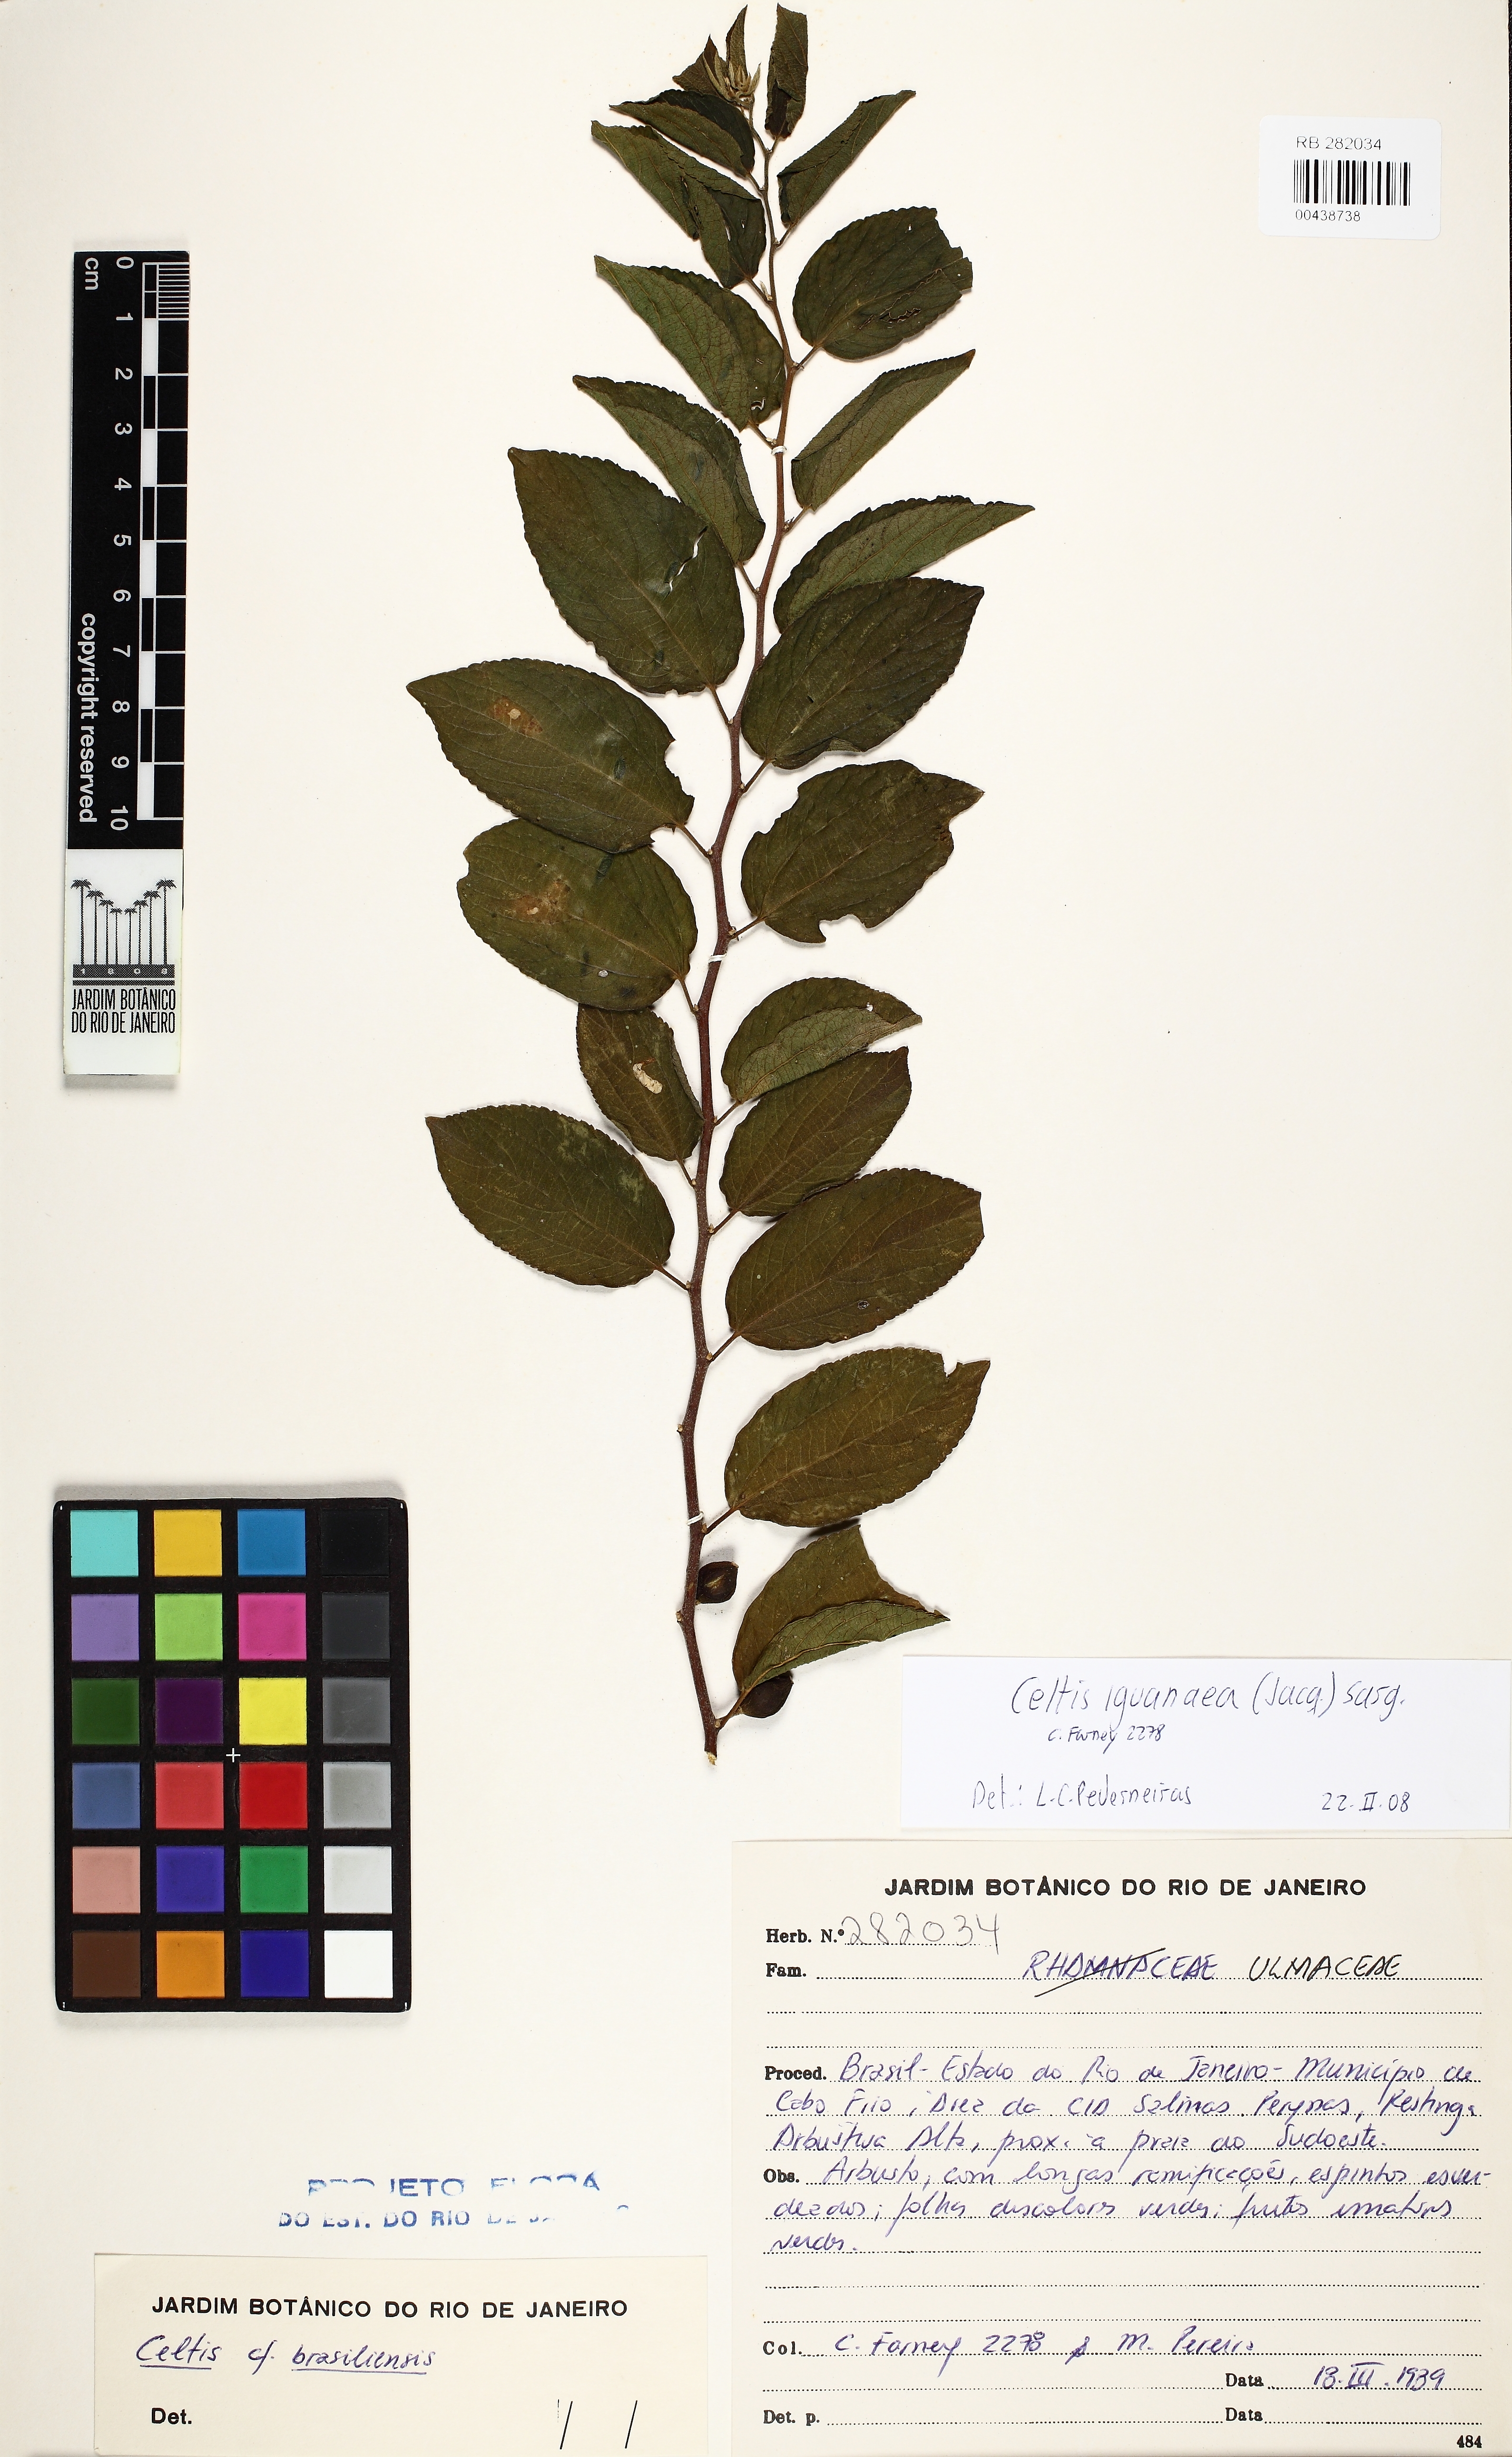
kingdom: Plantae
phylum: Tracheophyta
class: Magnoliopsida
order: Rosales
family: Cannabaceae
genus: Celtis
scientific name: Celtis iguanaea
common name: Iguana hackberry
